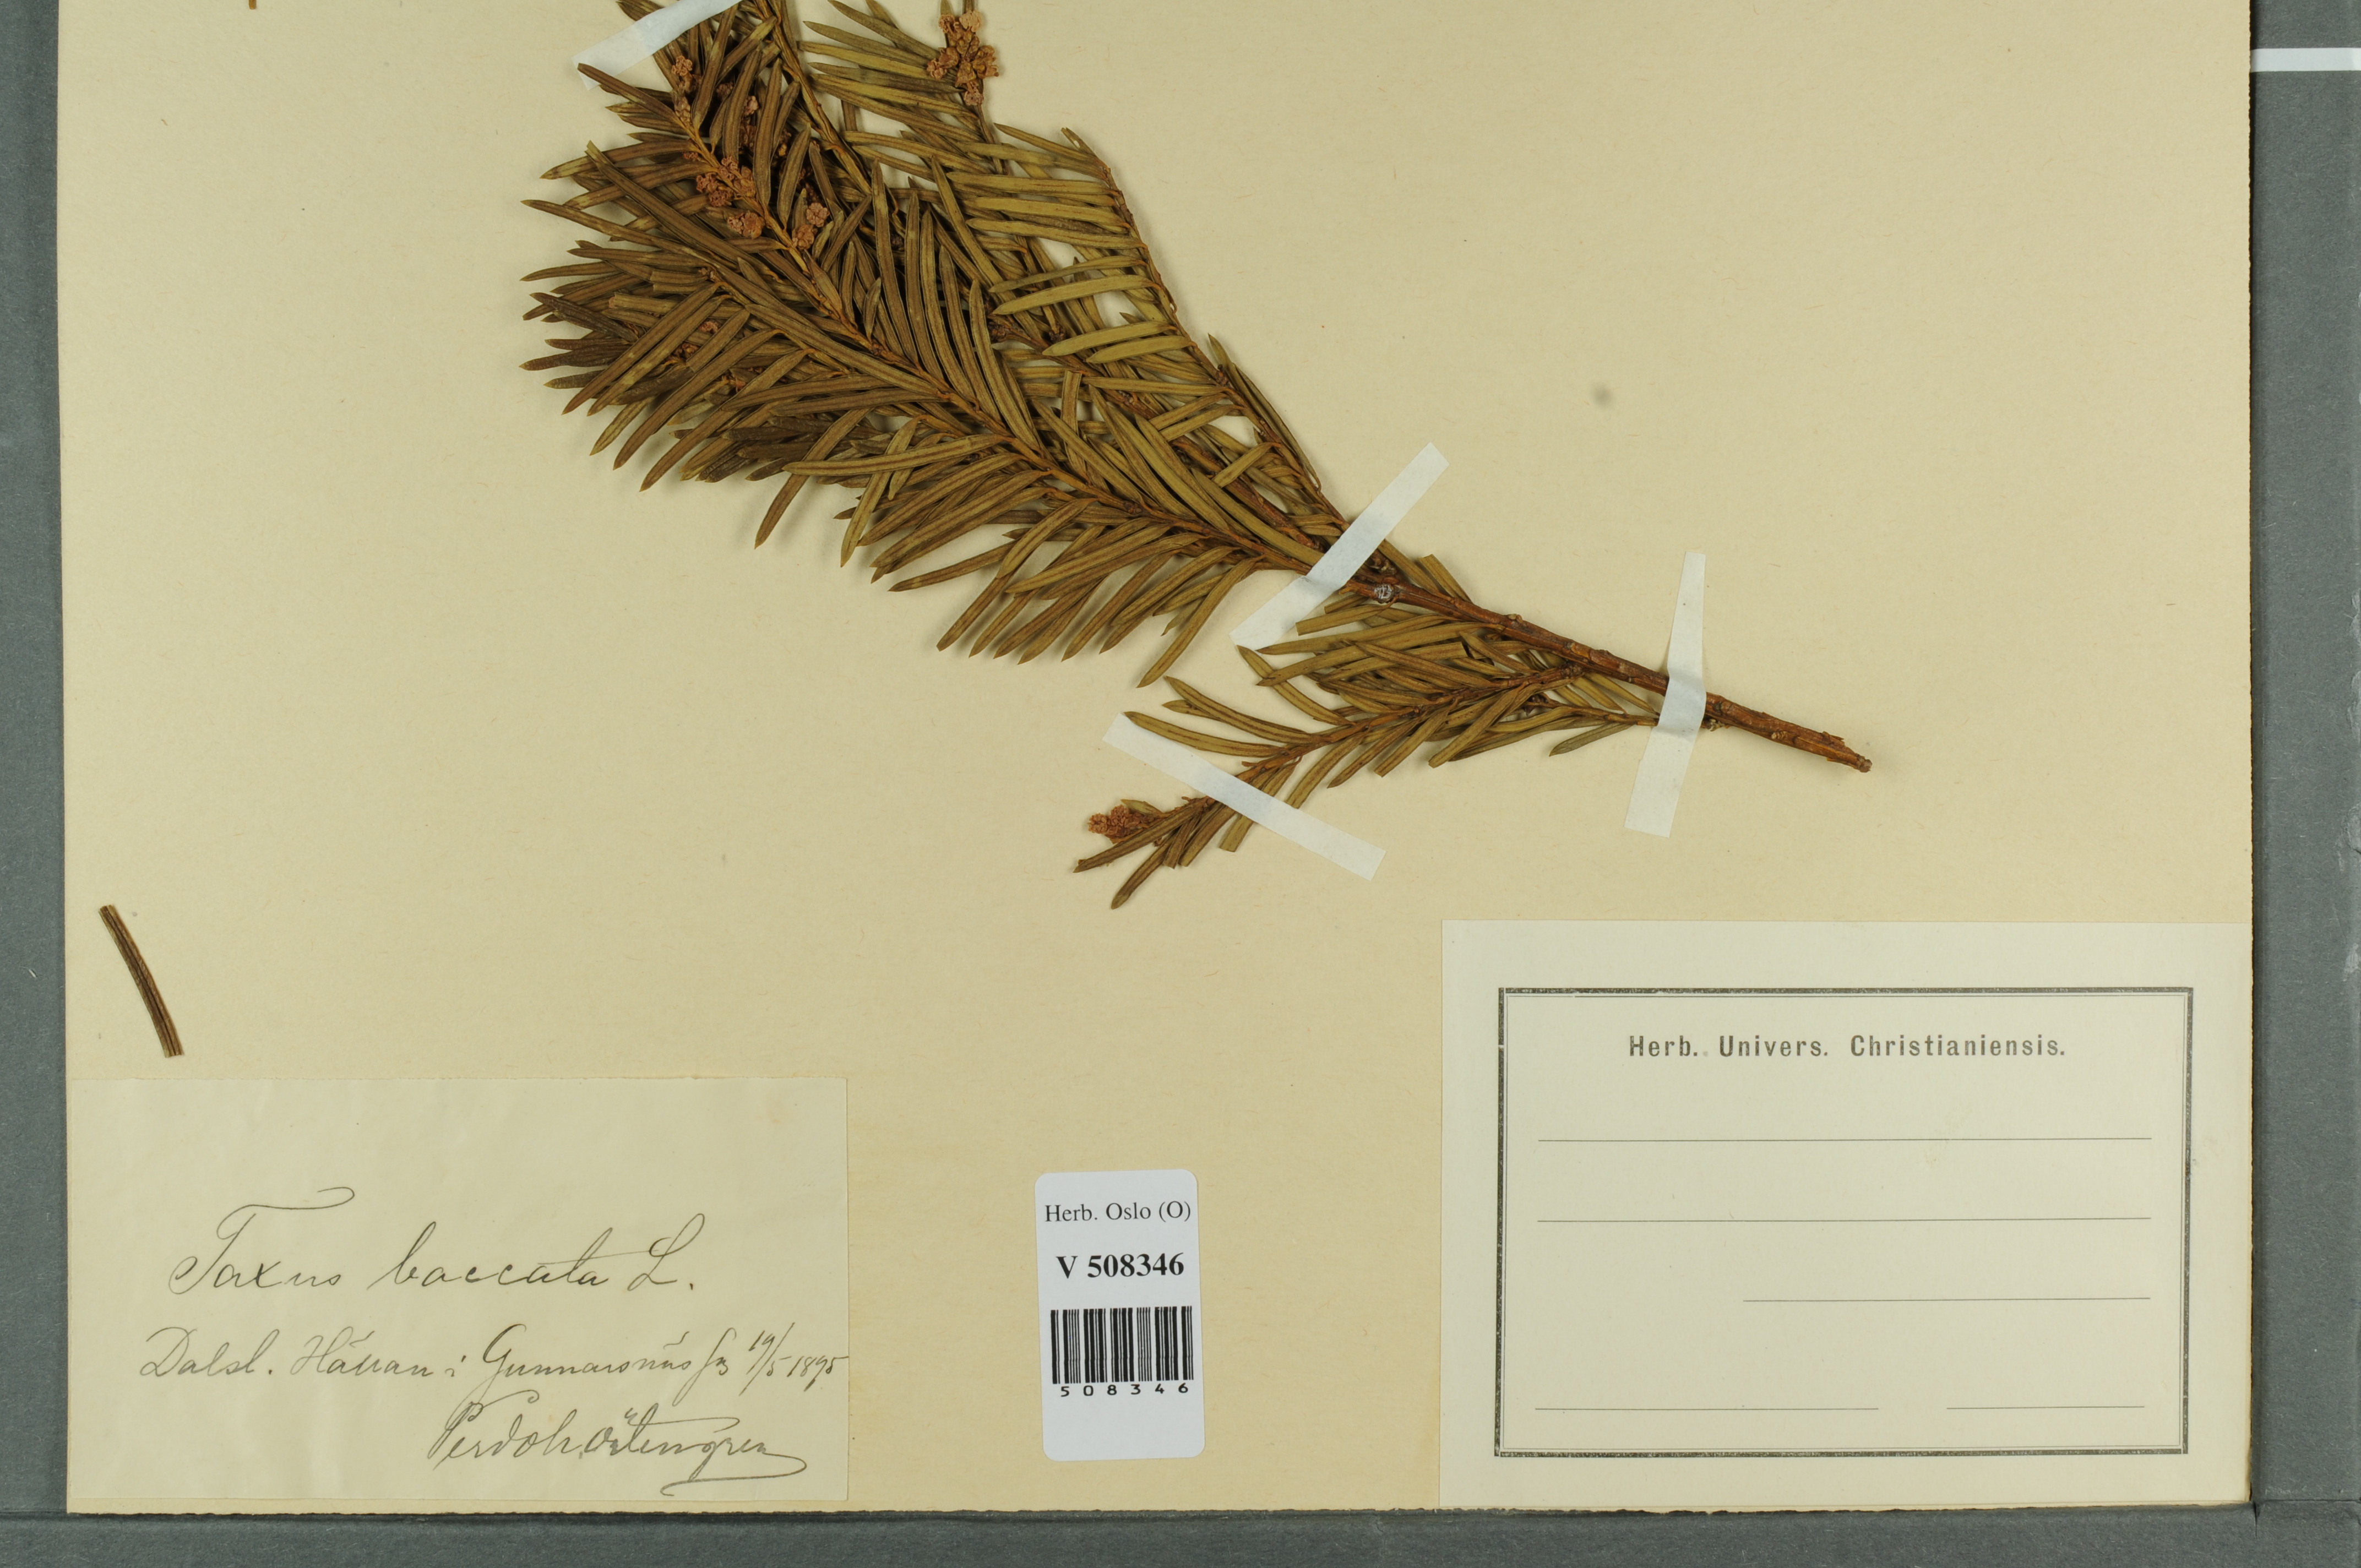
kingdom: Plantae
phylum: Tracheophyta
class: Pinopsida
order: Pinales
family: Taxaceae
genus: Taxus
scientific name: Taxus baccata
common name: Yew
